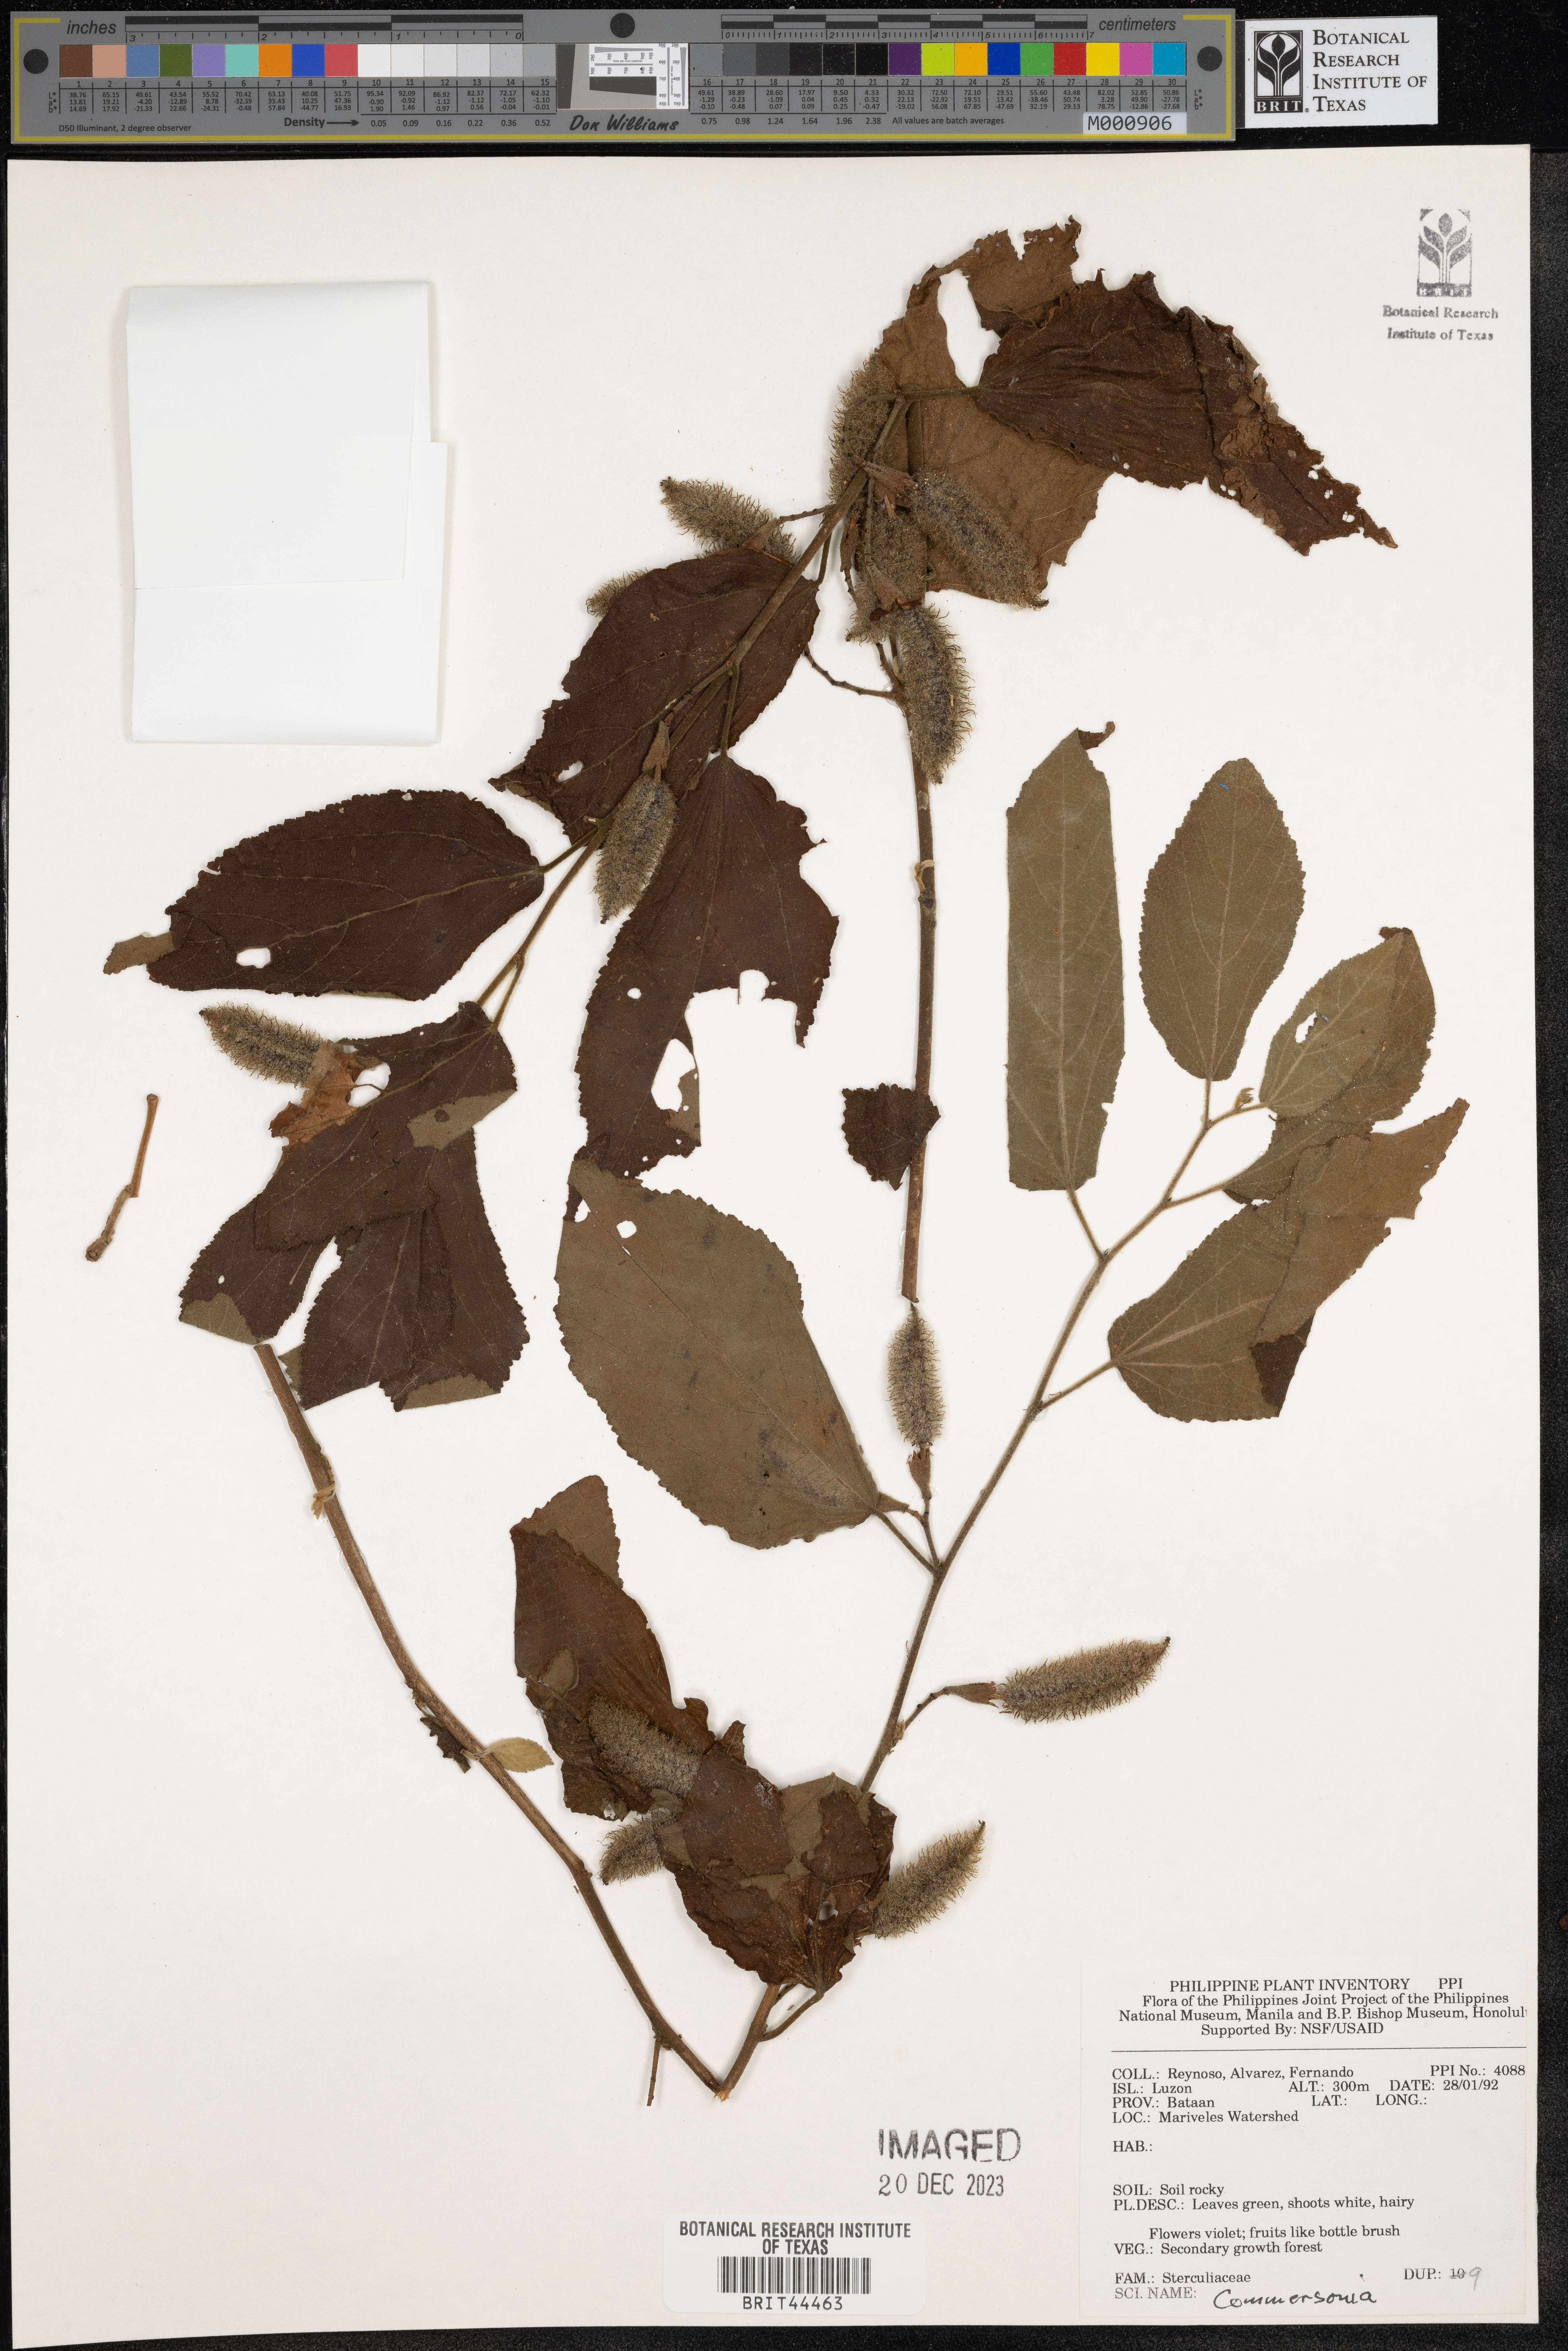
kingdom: Plantae
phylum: Tracheophyta
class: Magnoliopsida
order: Malvales
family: Malvaceae
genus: Commersonia
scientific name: Commersonia
